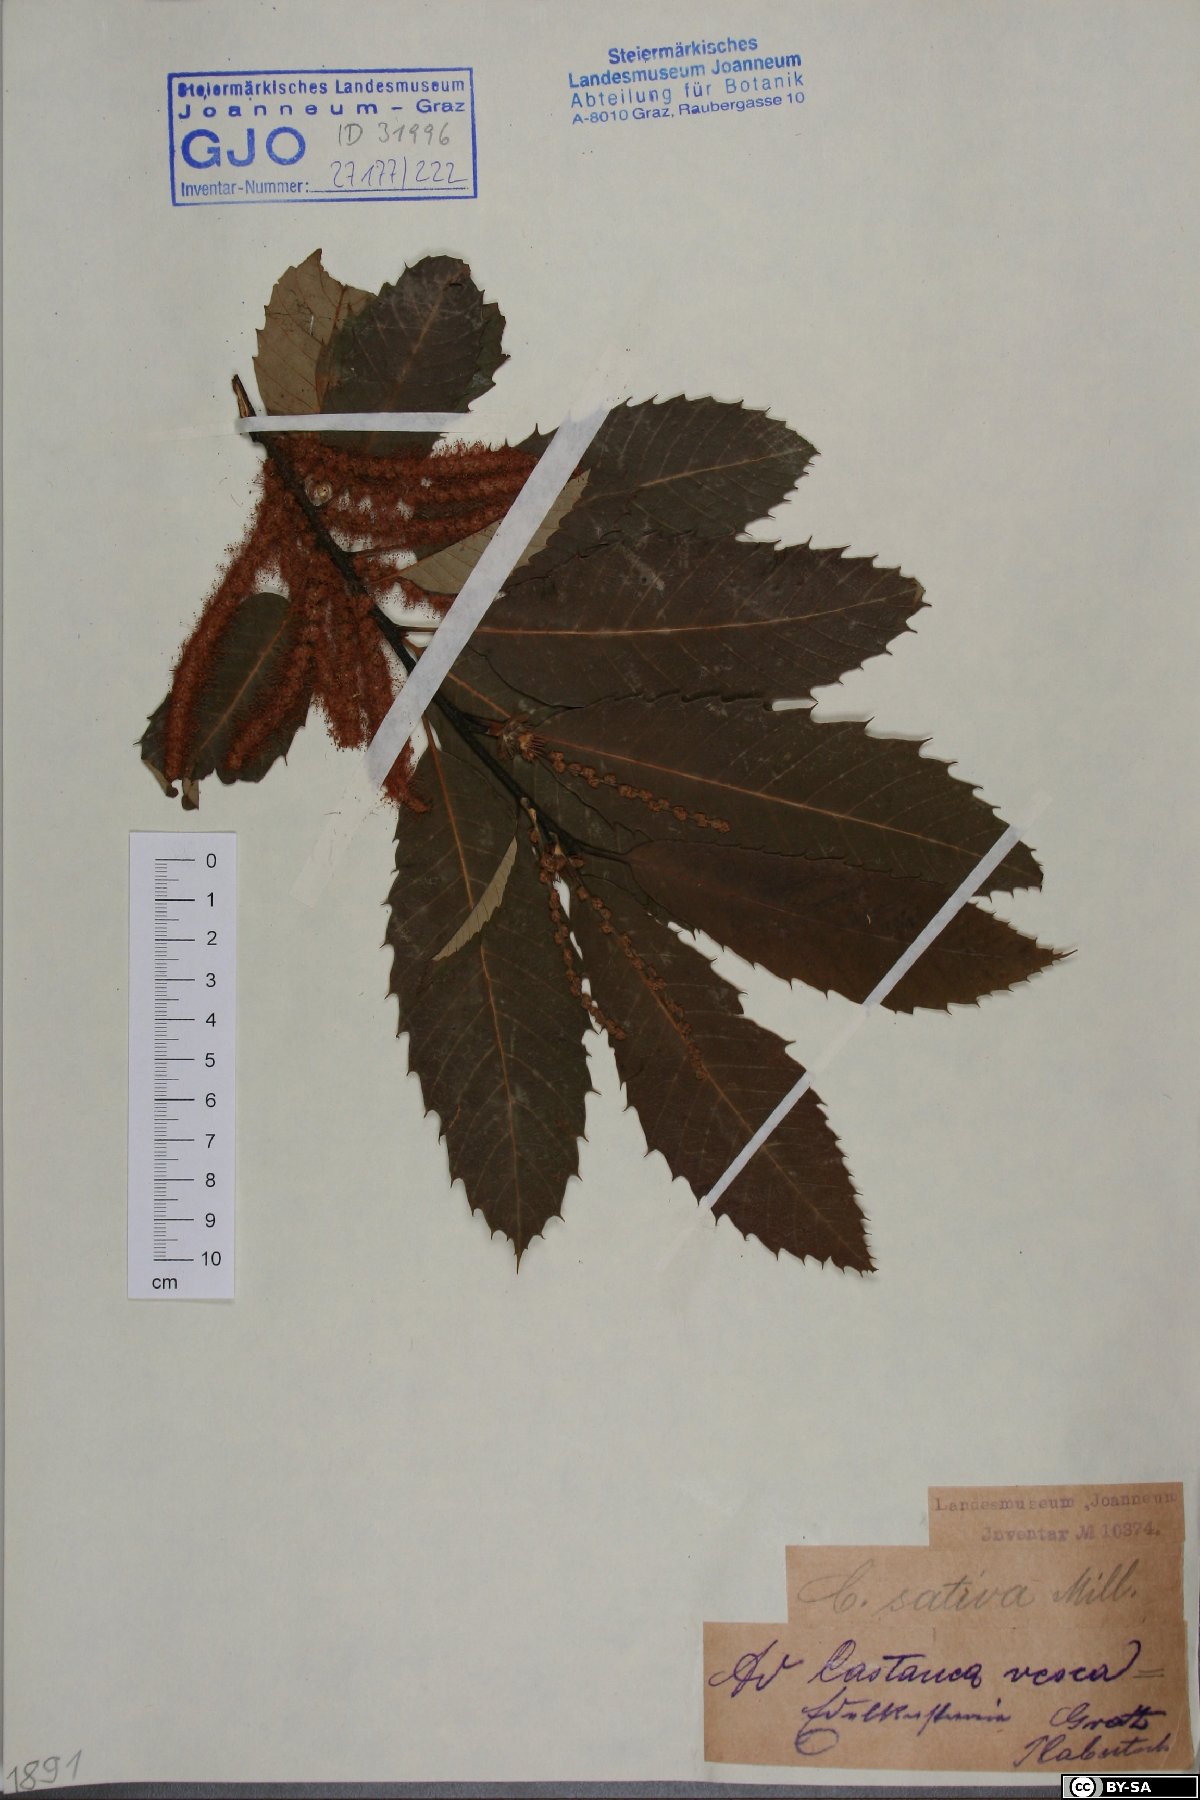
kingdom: Plantae
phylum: Tracheophyta
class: Magnoliopsida
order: Fagales
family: Fagaceae
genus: Castanea
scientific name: Castanea sativa
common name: Sweet chestnut
